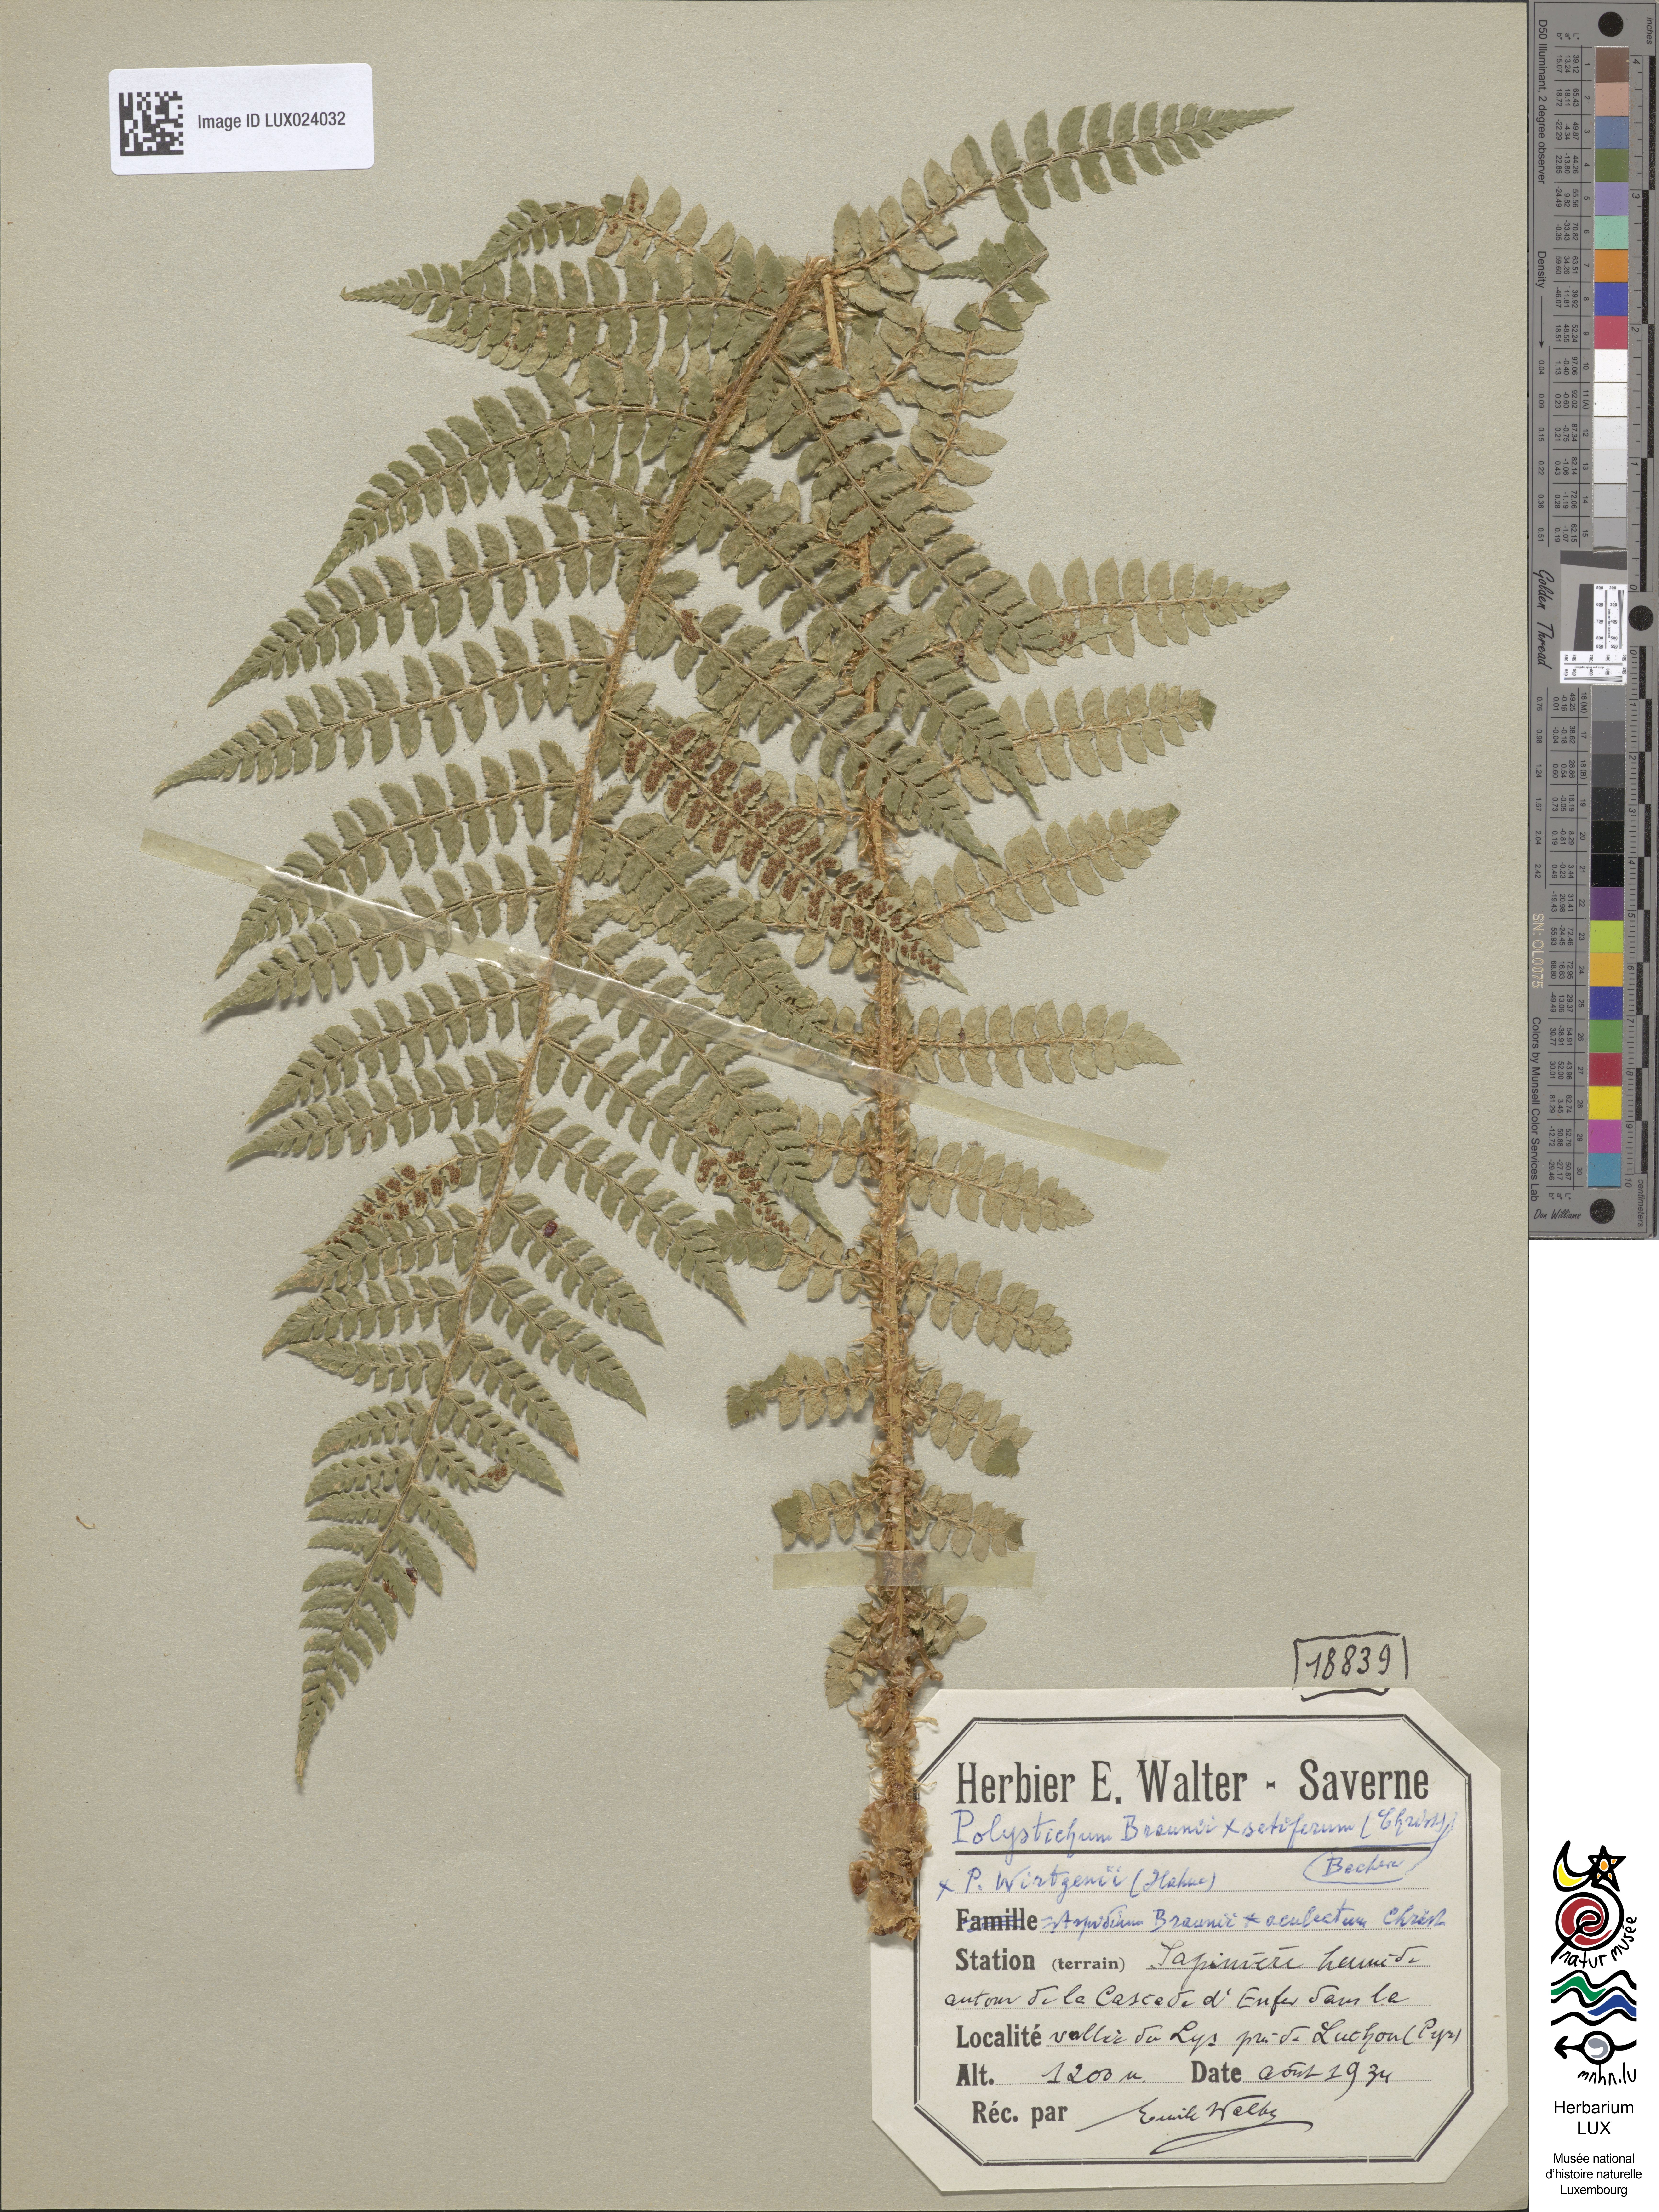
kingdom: Plantae
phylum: Tracheophyta
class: Polypodiopsida
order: Polypodiales
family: Dryopteridaceae
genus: Polystichum
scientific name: Polystichum wirtgenii
